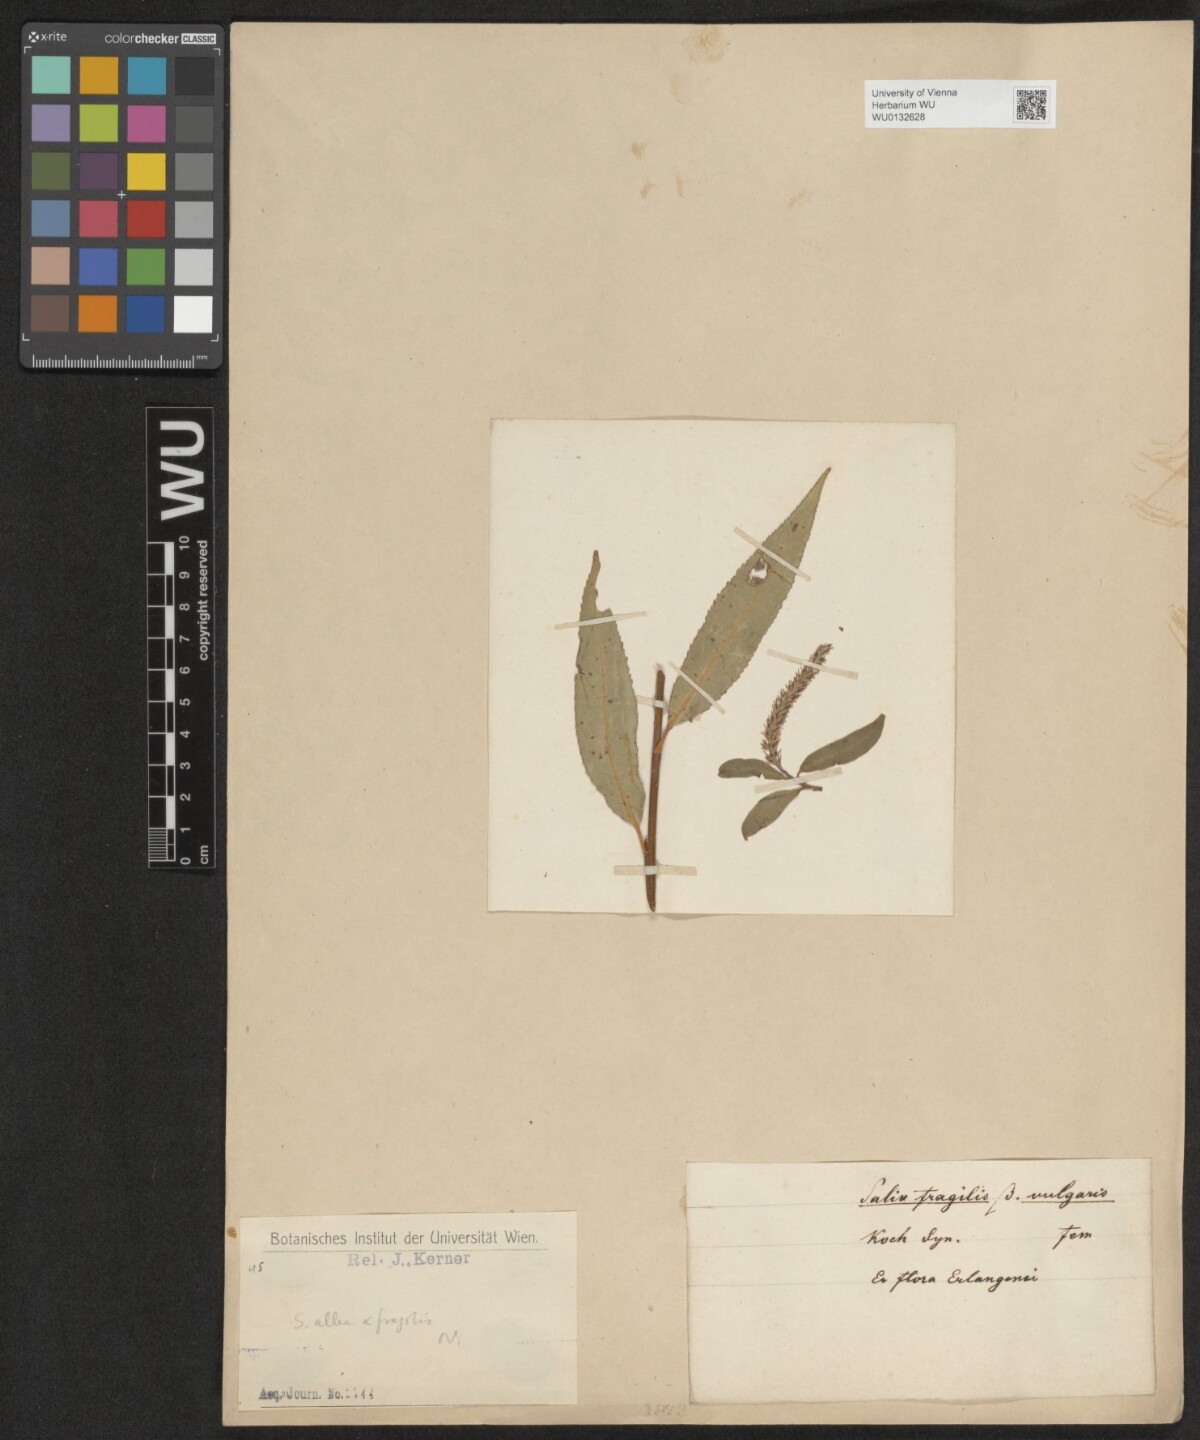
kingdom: Plantae
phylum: Tracheophyta
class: Magnoliopsida
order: Malpighiales
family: Salicaceae
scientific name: Salicaceae
